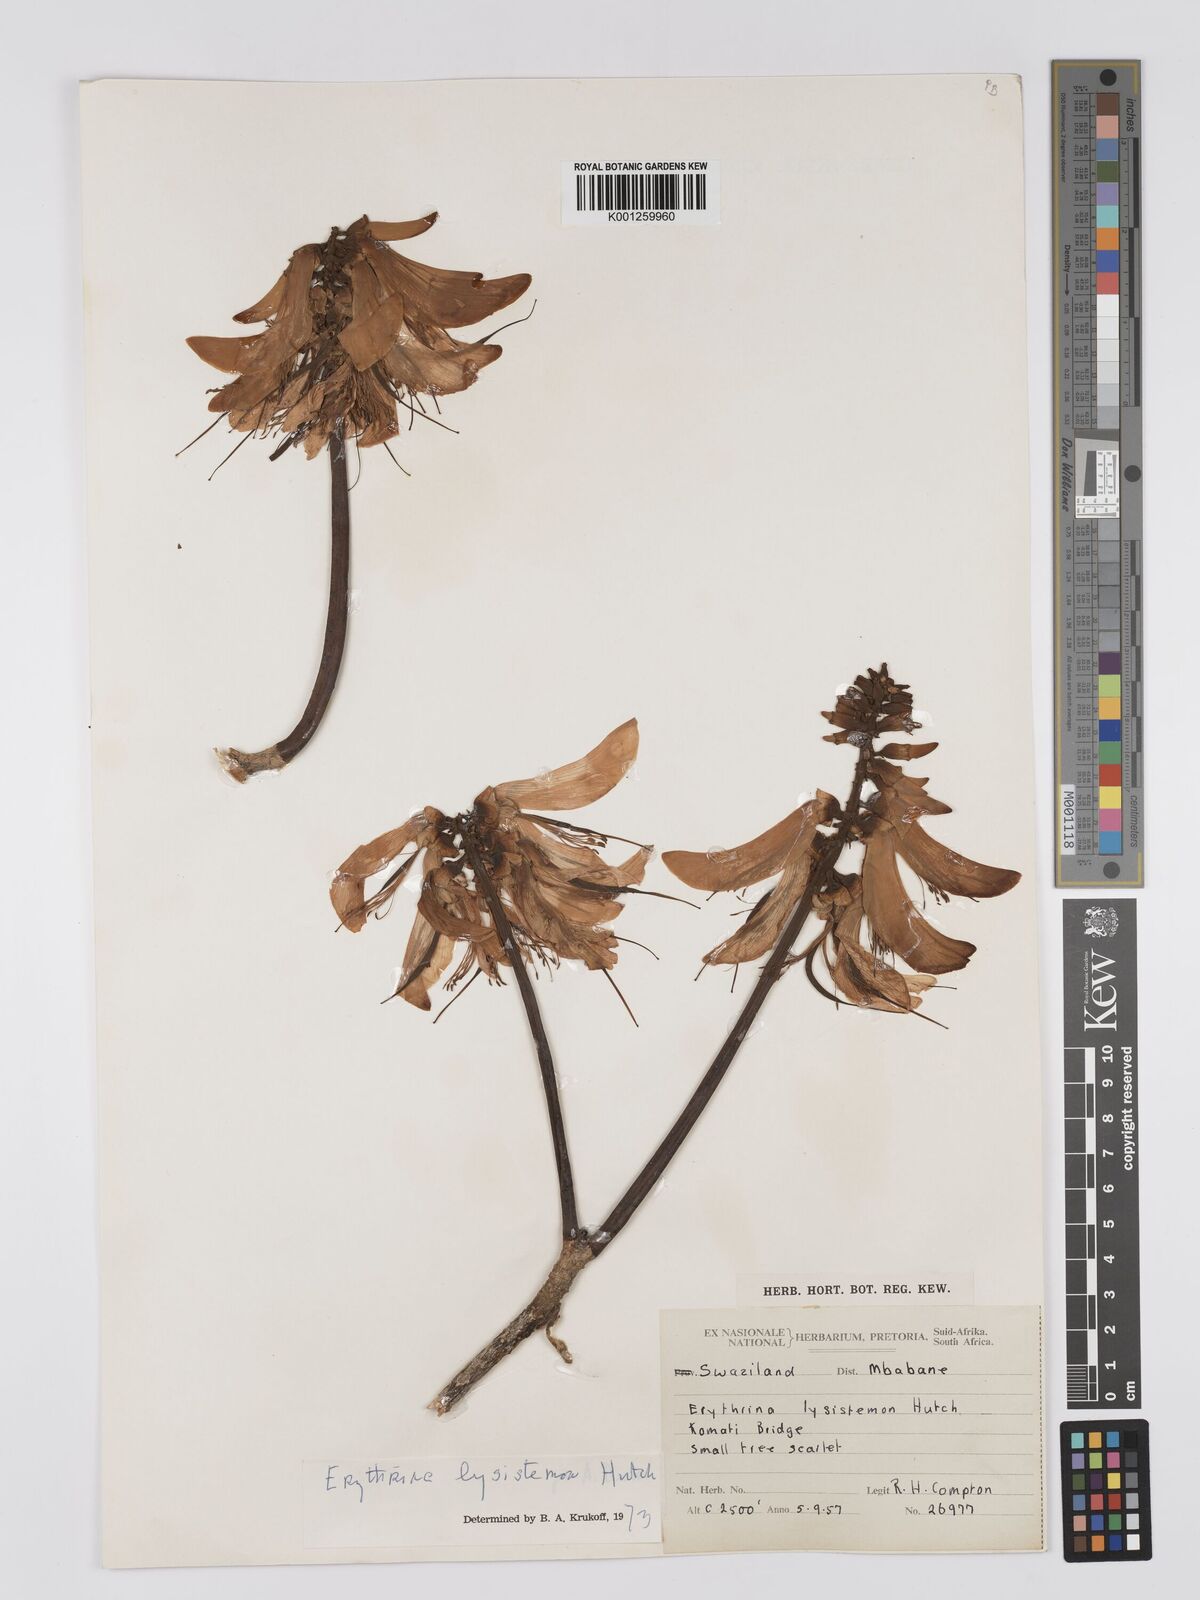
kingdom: Plantae
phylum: Tracheophyta
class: Magnoliopsida
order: Fabales
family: Fabaceae
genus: Erythrina
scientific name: Erythrina lysistemon
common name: Common coral tree
